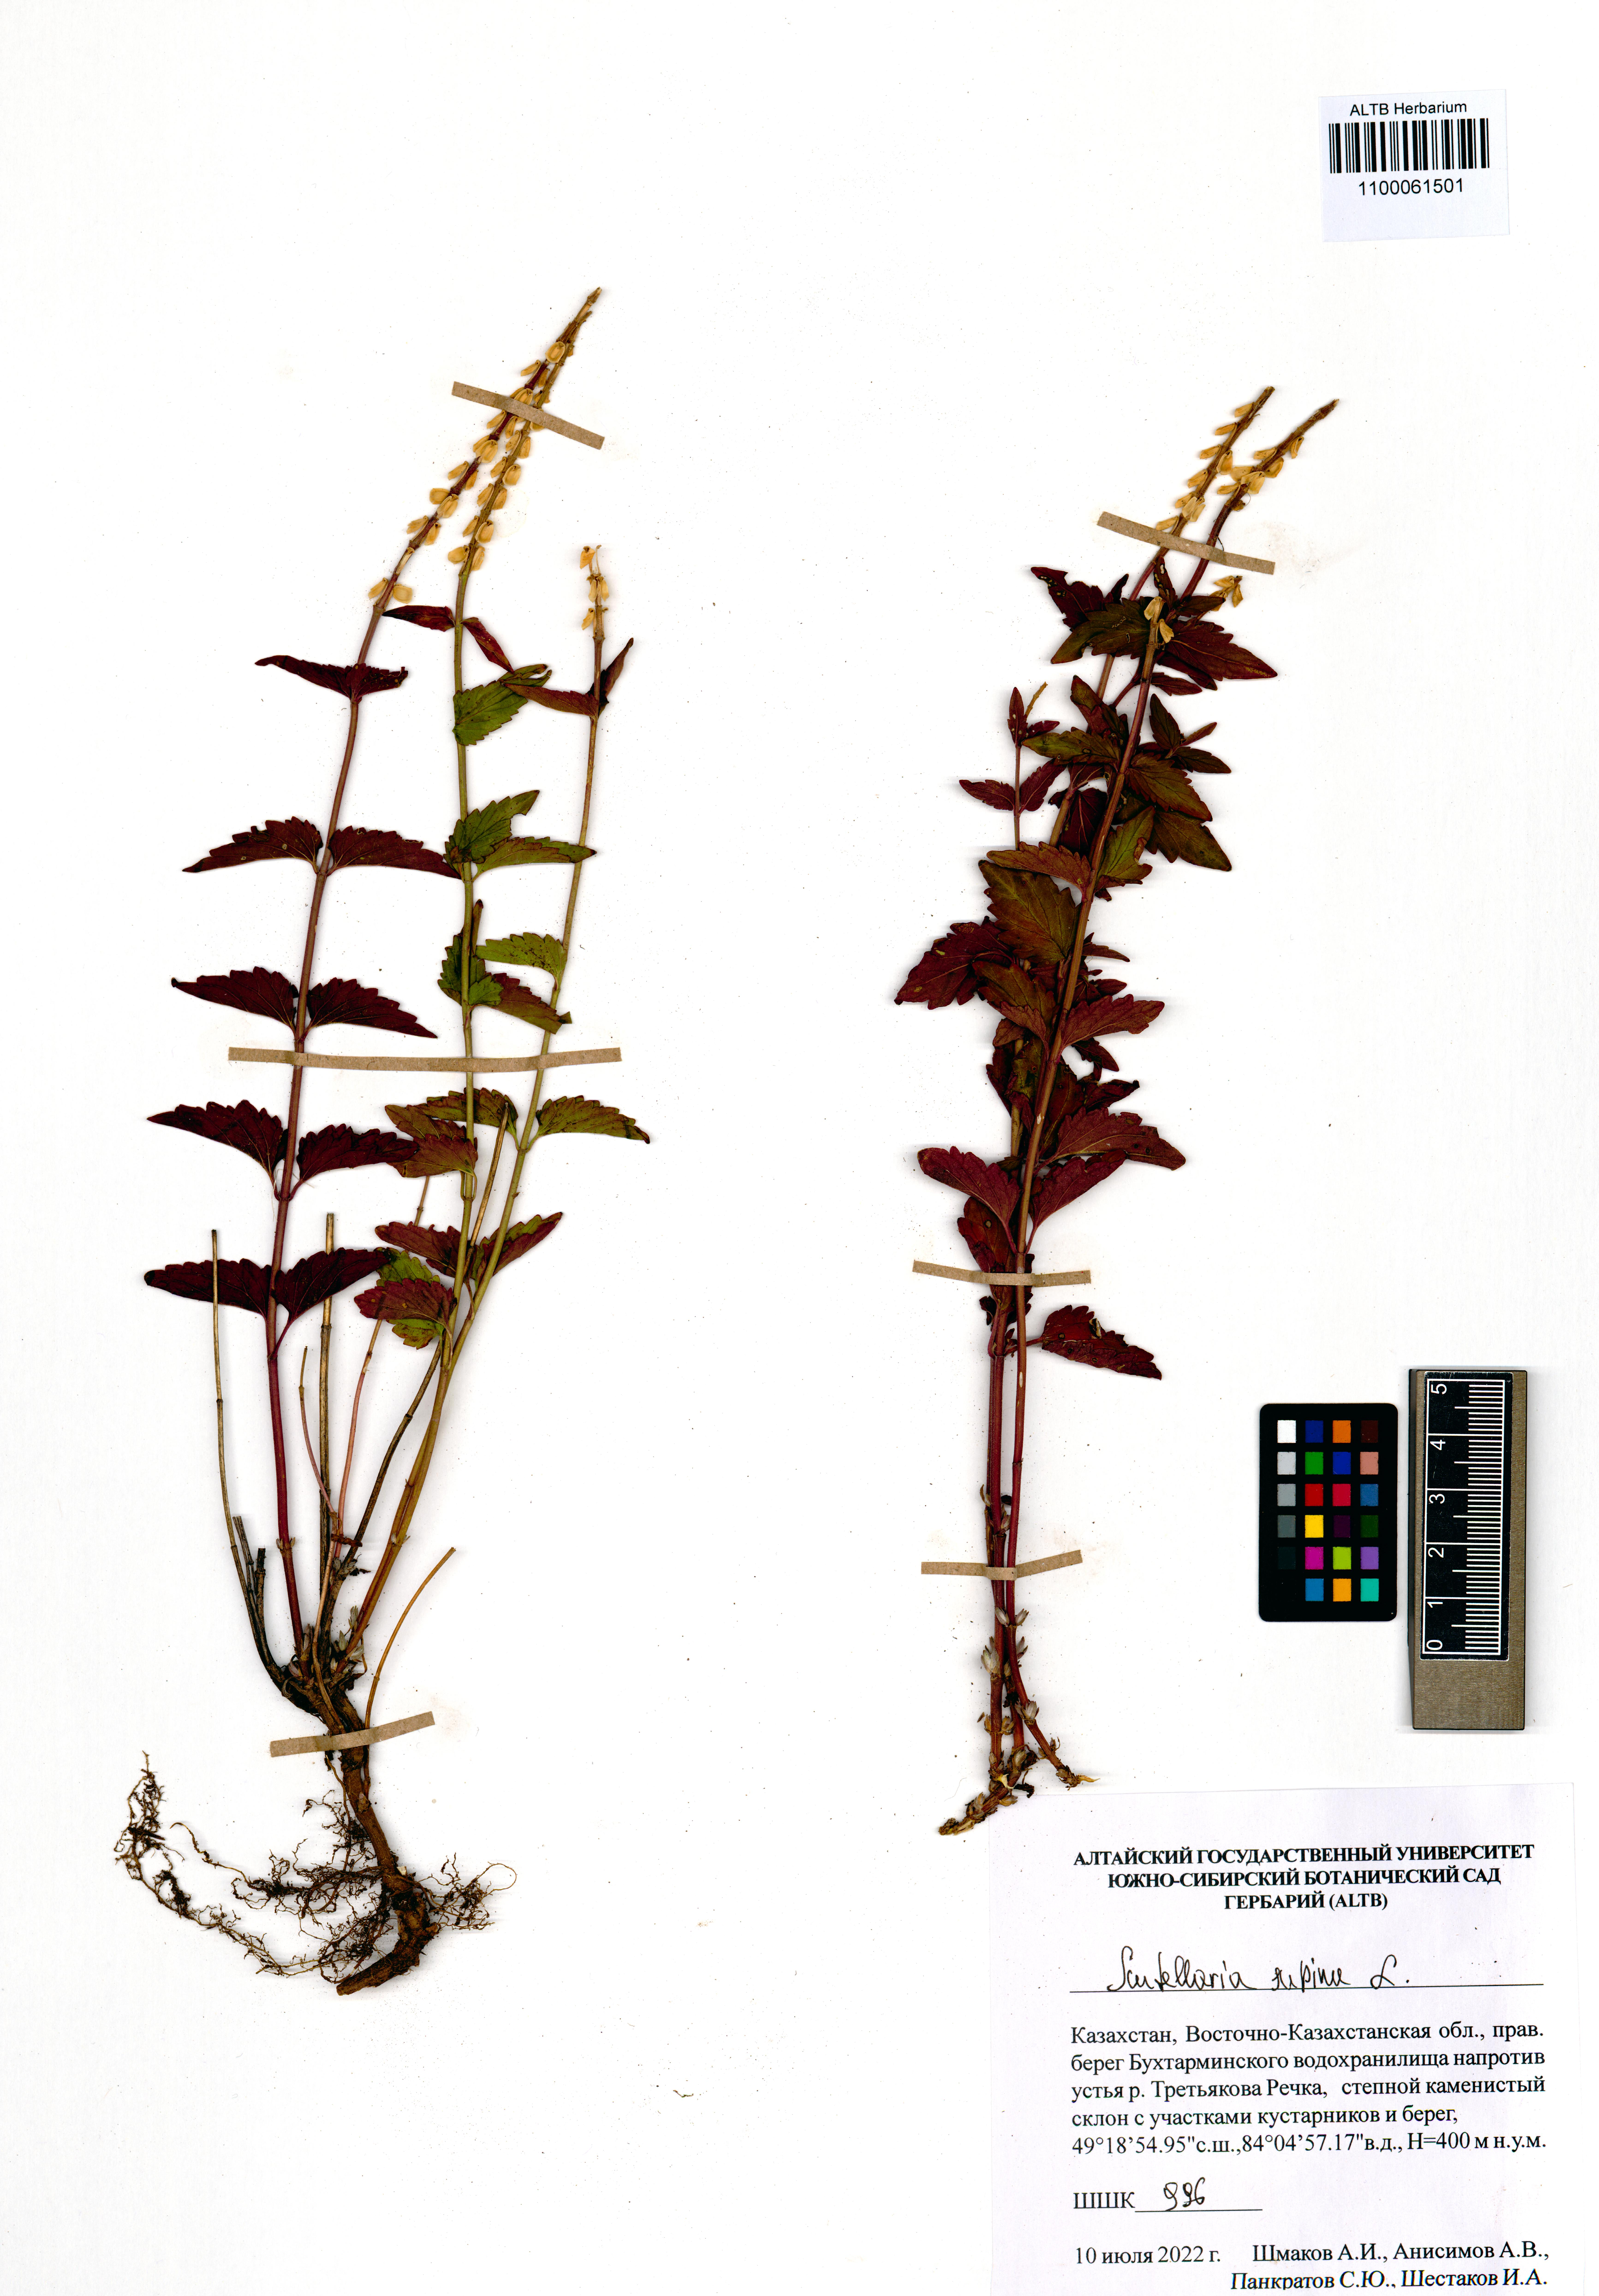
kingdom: Plantae
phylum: Tracheophyta
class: Magnoliopsida
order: Lamiales
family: Lamiaceae
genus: Scutellaria
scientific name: Scutellaria supina
